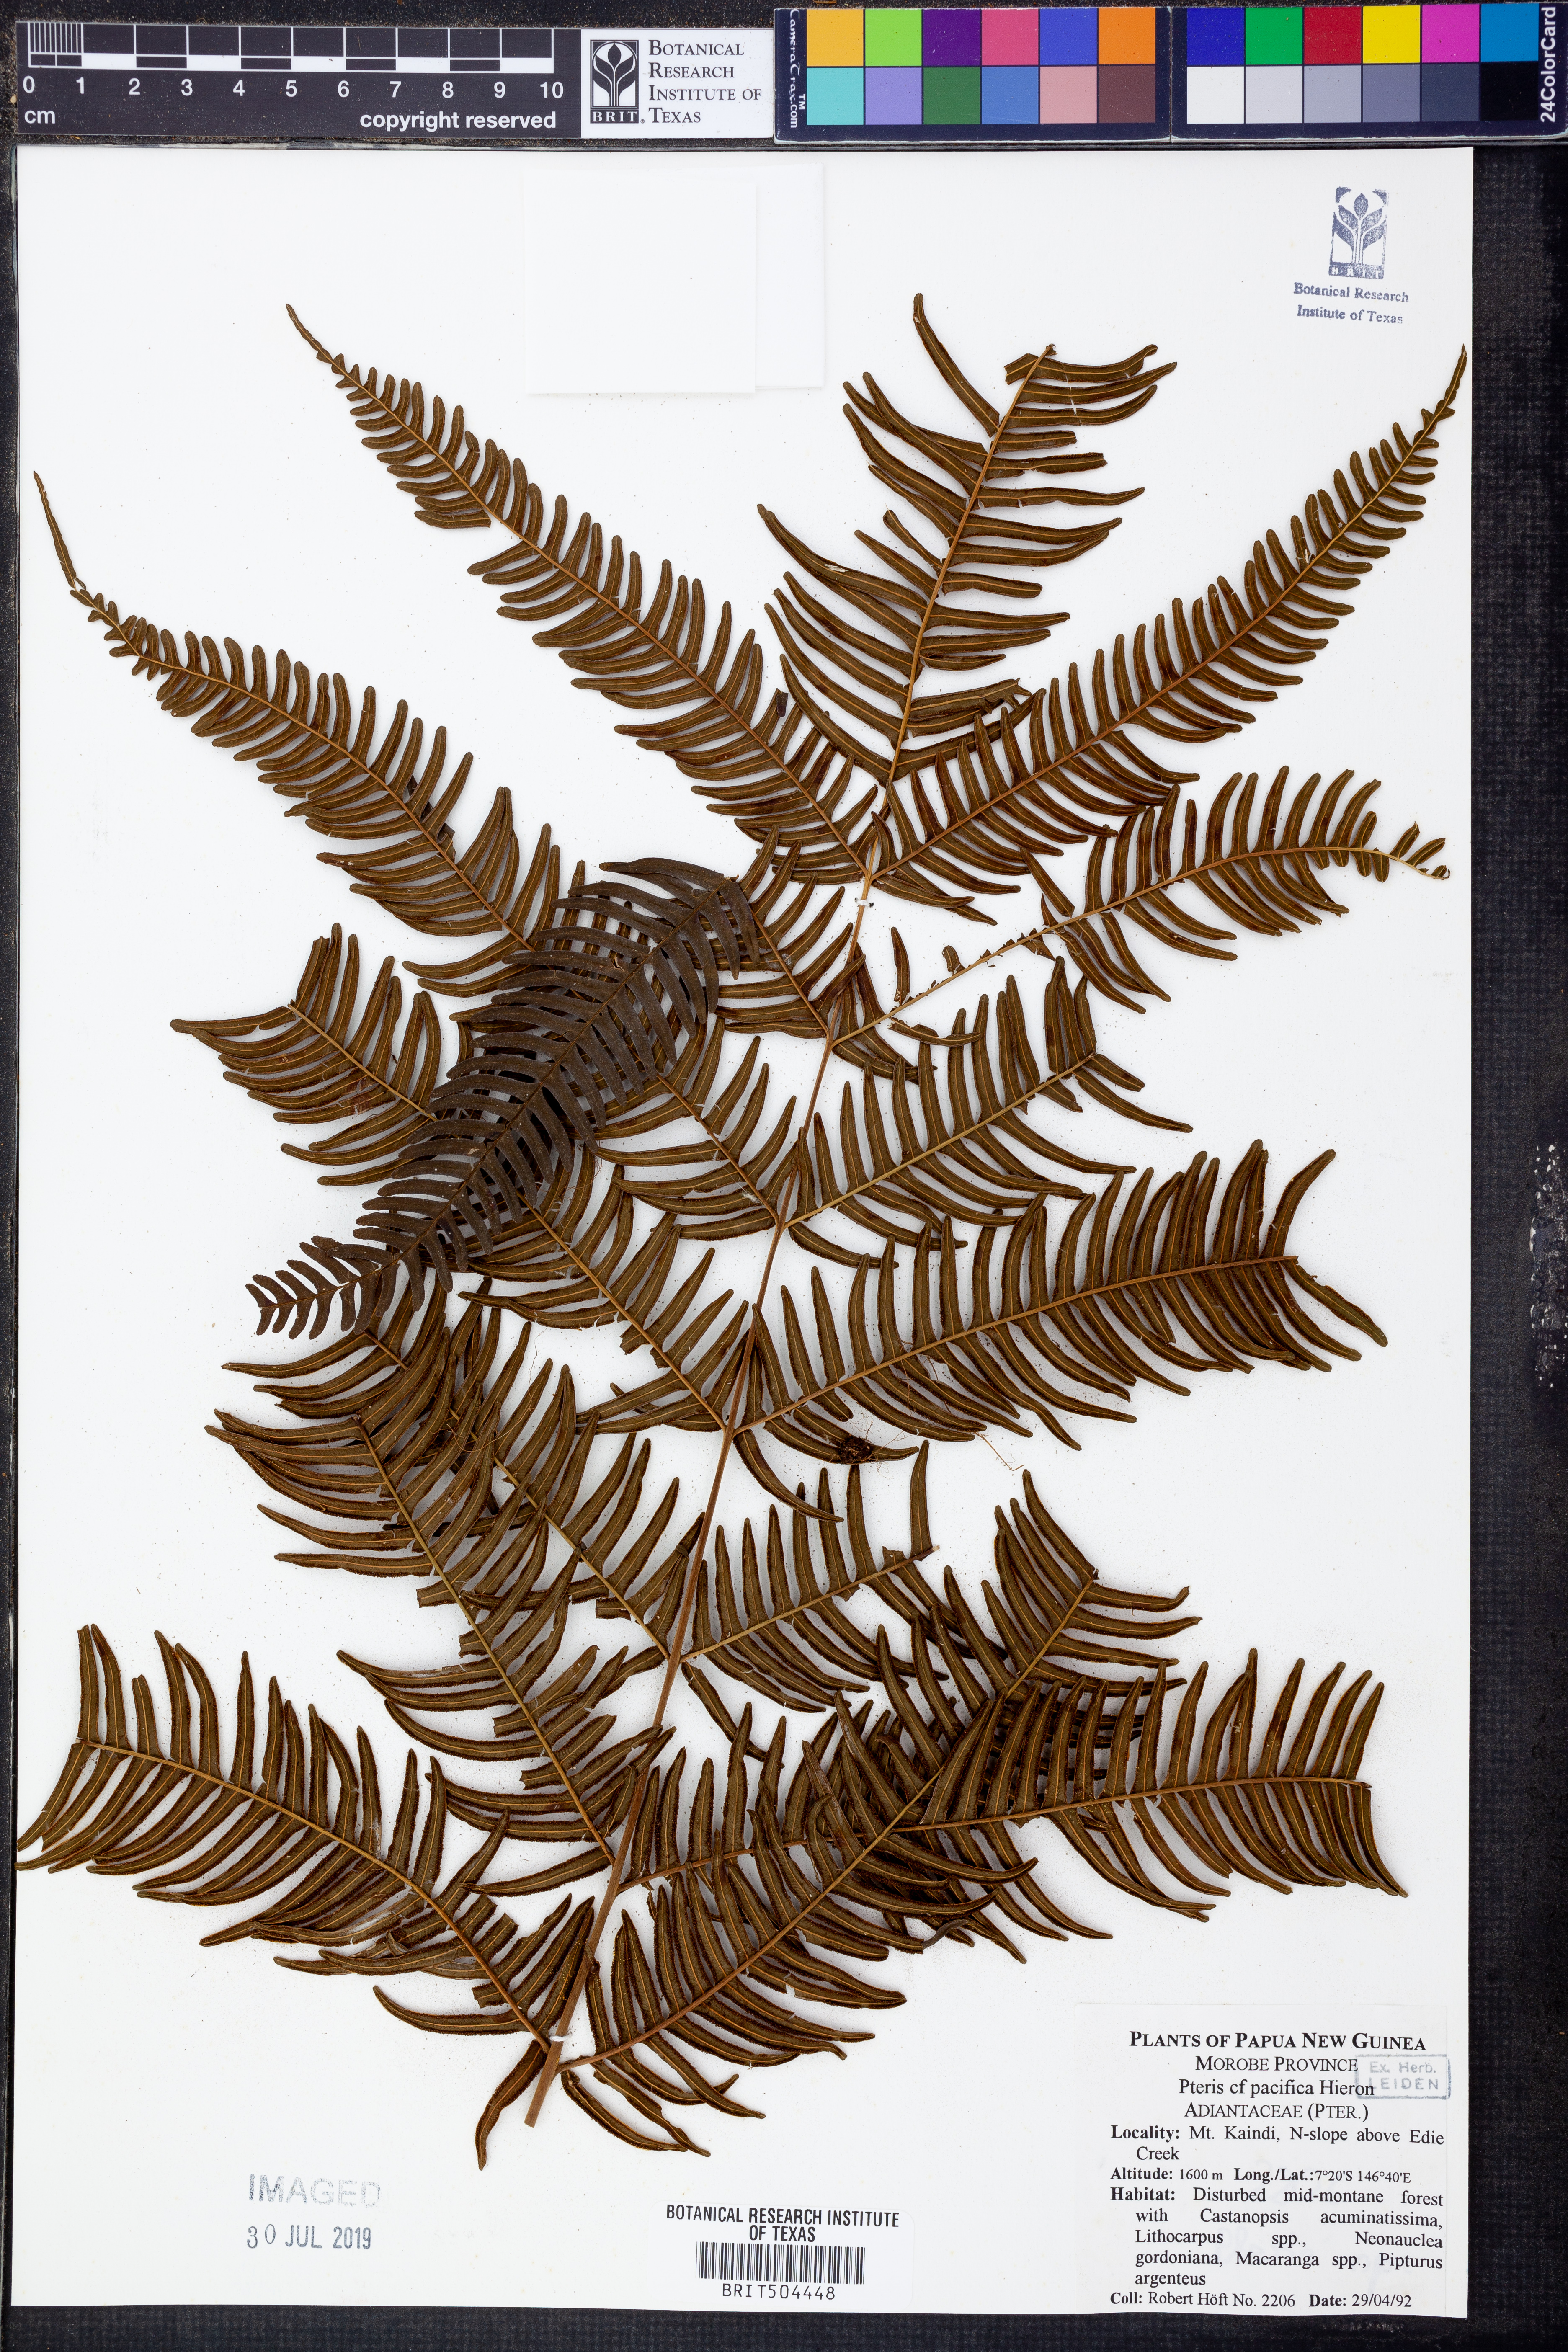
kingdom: Plantae
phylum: Tracheophyta
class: Polypodiopsida
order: Polypodiales
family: Pteridaceae
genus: Pteris
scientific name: Pteris biaurita
